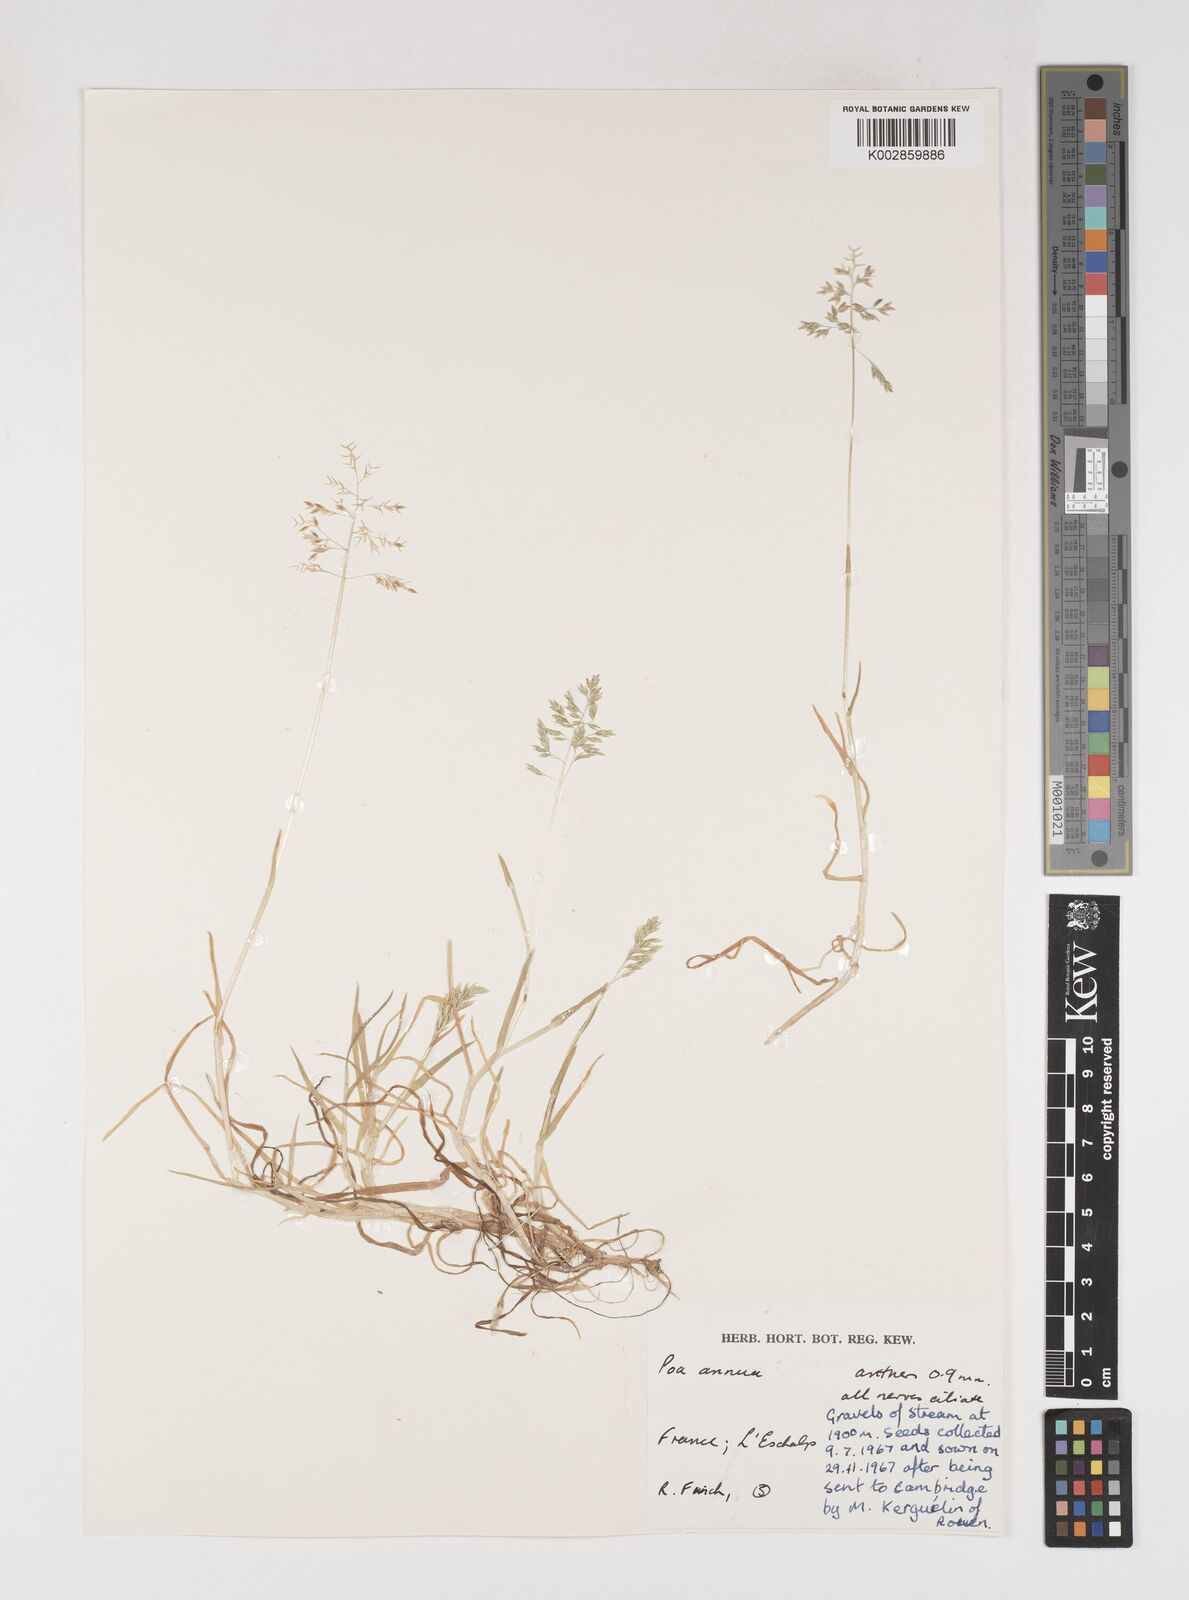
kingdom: Plantae
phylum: Tracheophyta
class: Liliopsida
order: Poales
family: Poaceae
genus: Poa
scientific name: Poa annua
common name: Annual bluegrass
